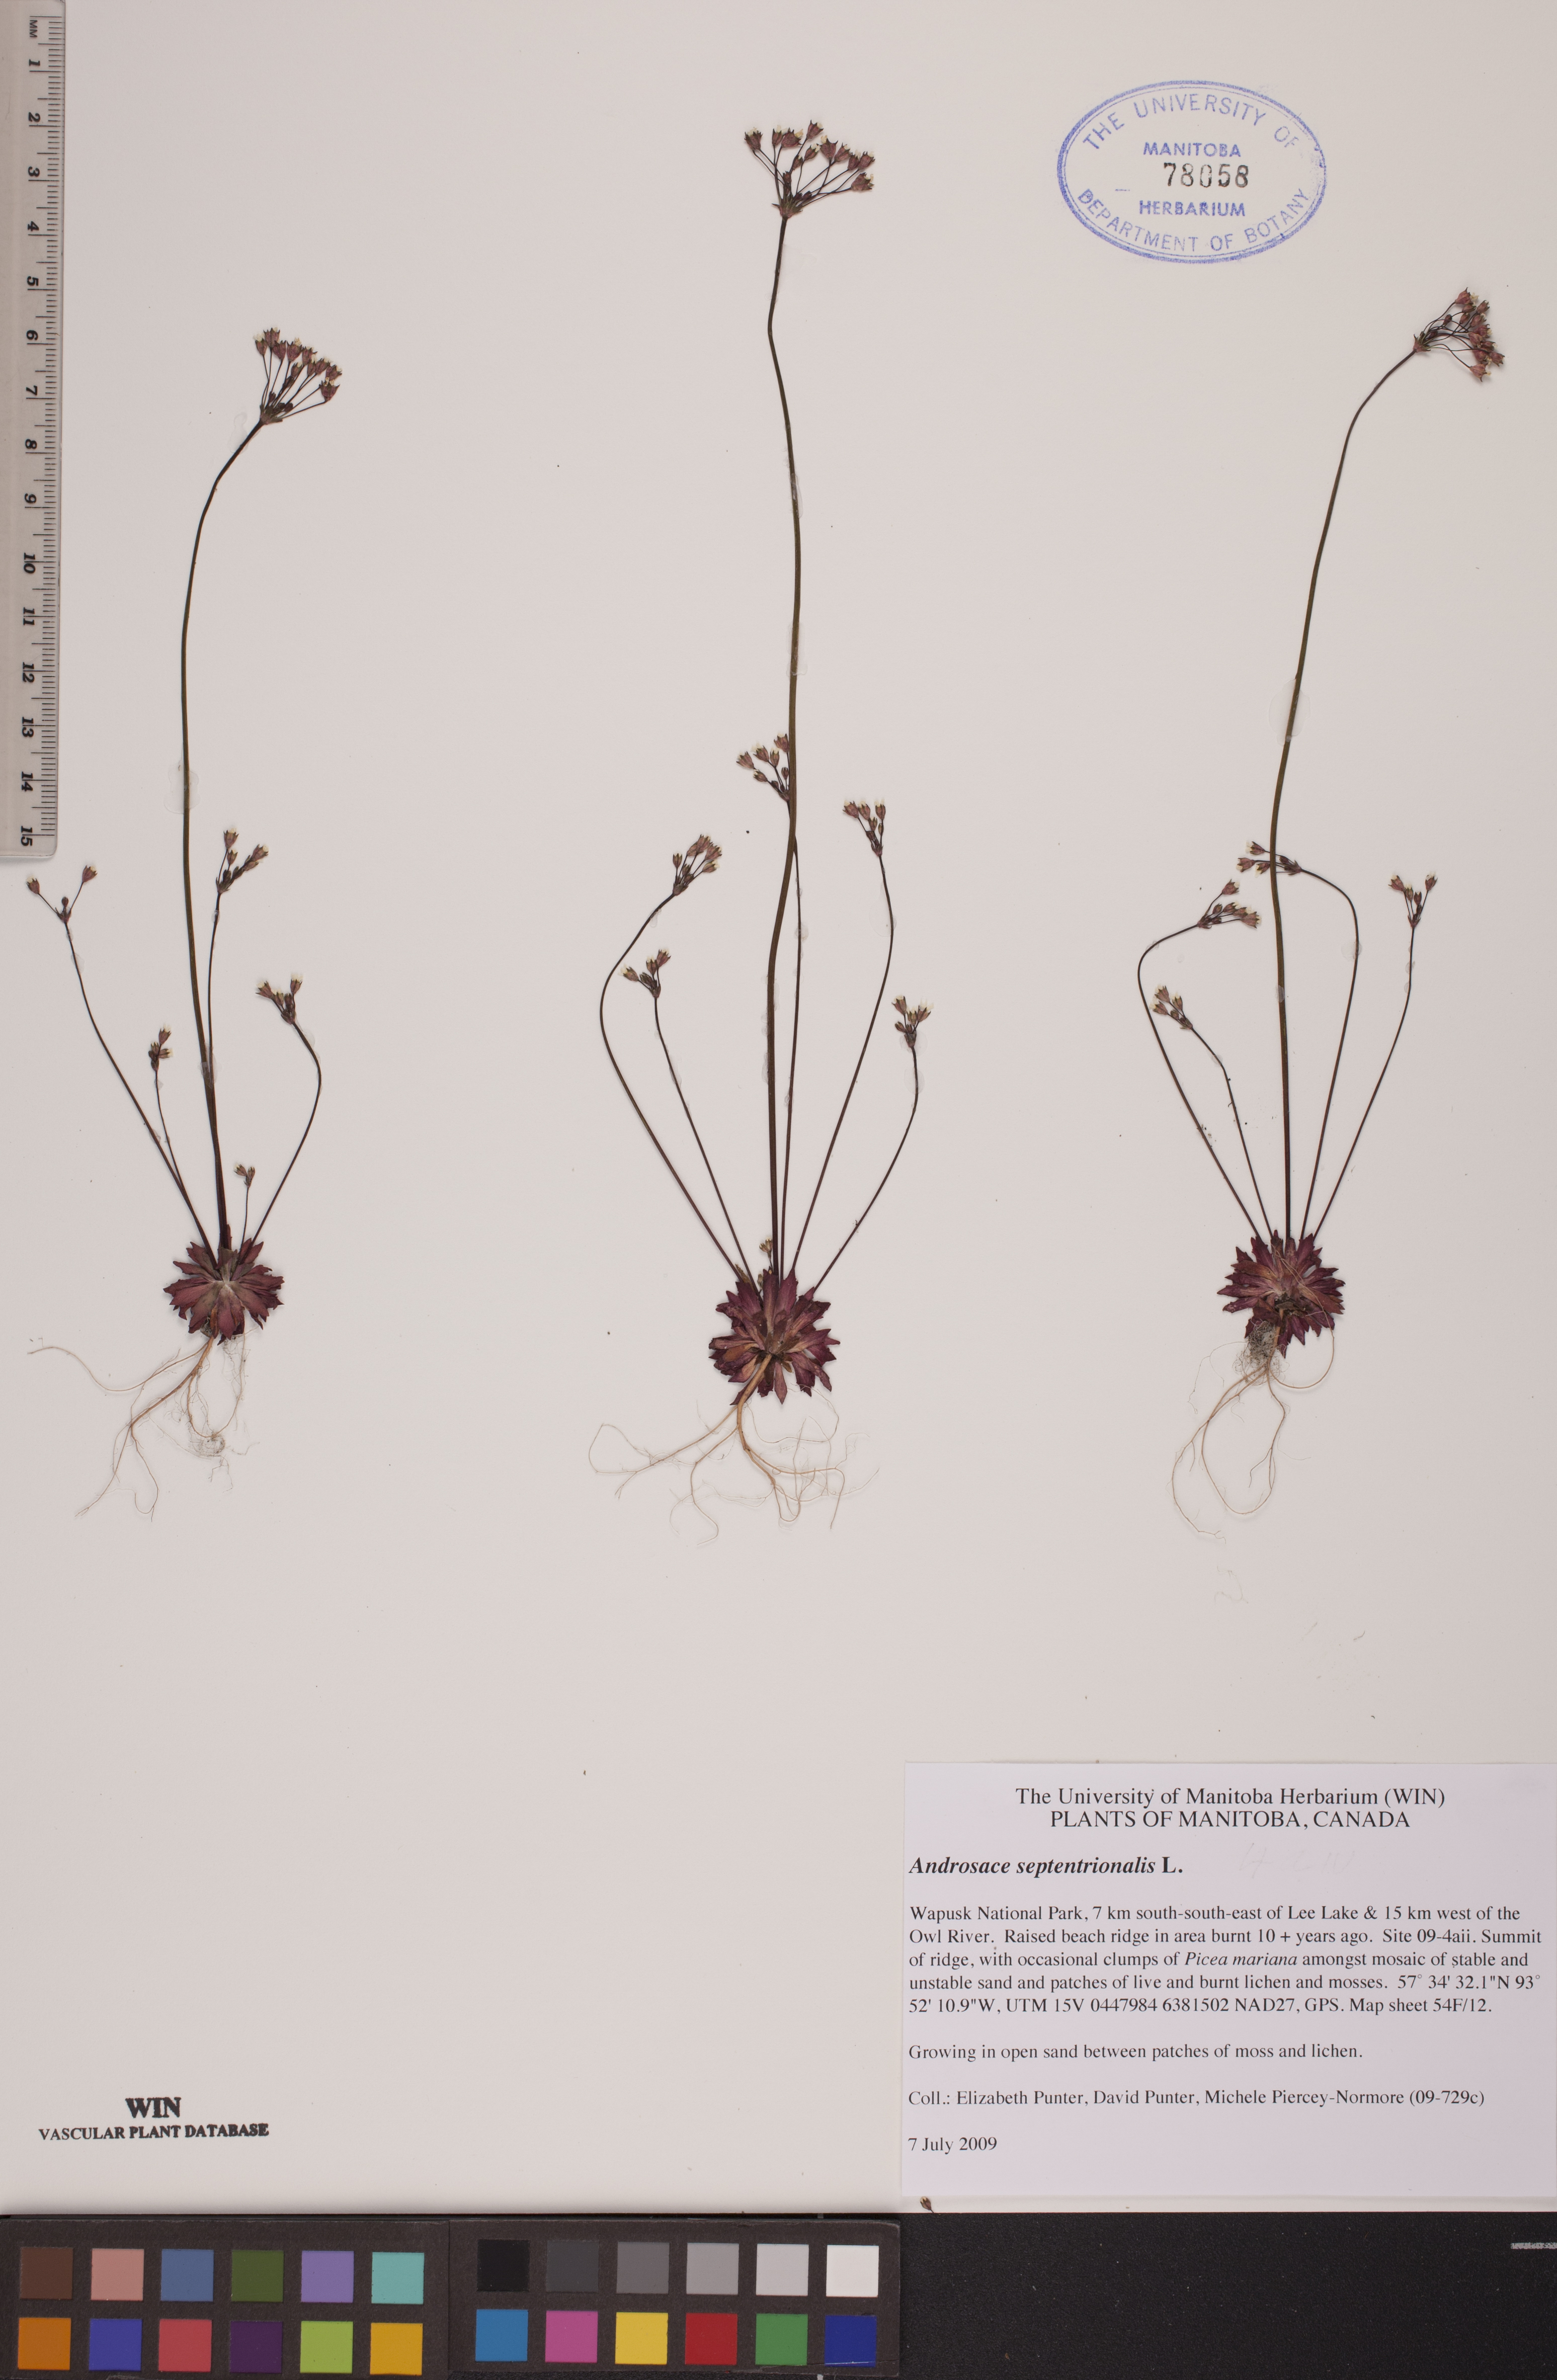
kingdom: Plantae
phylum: Tracheophyta
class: Magnoliopsida
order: Ericales
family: Primulaceae
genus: Androsace
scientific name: Androsace septentrionalis
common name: Hairy northern fairy-candelabra
